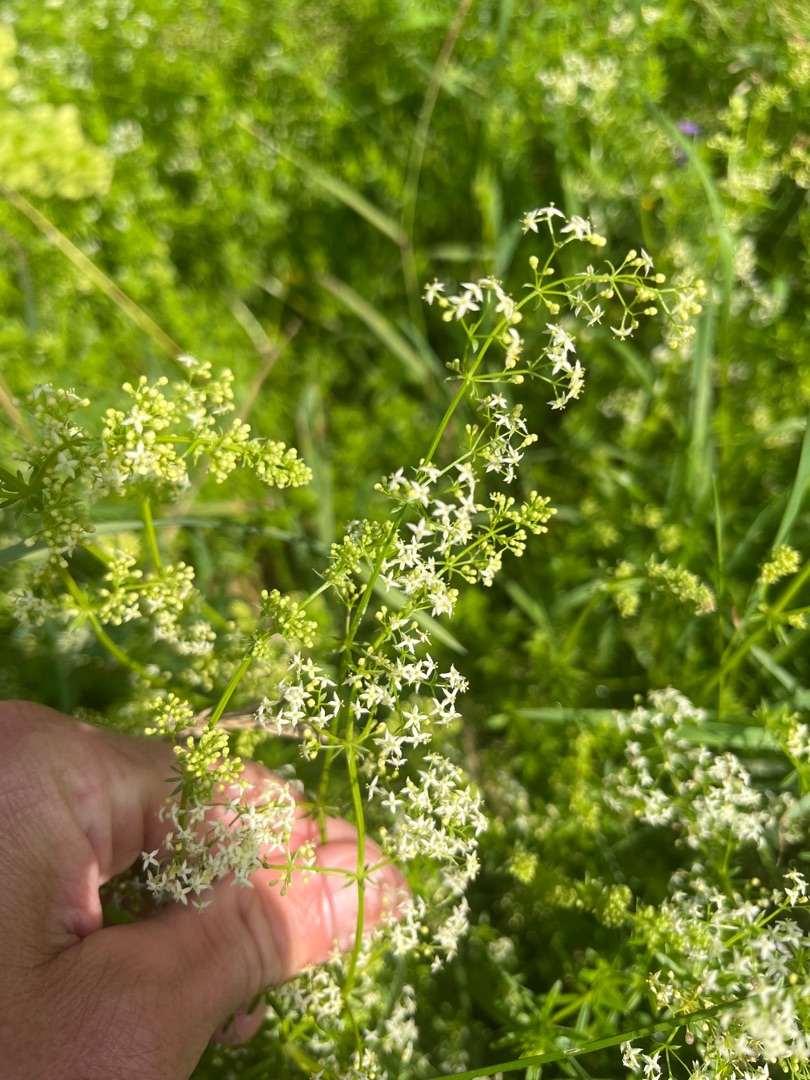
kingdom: Plantae
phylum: Tracheophyta
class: Magnoliopsida
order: Gentianales
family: Rubiaceae
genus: Galium
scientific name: Galium mollugo
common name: Hvid snerre
